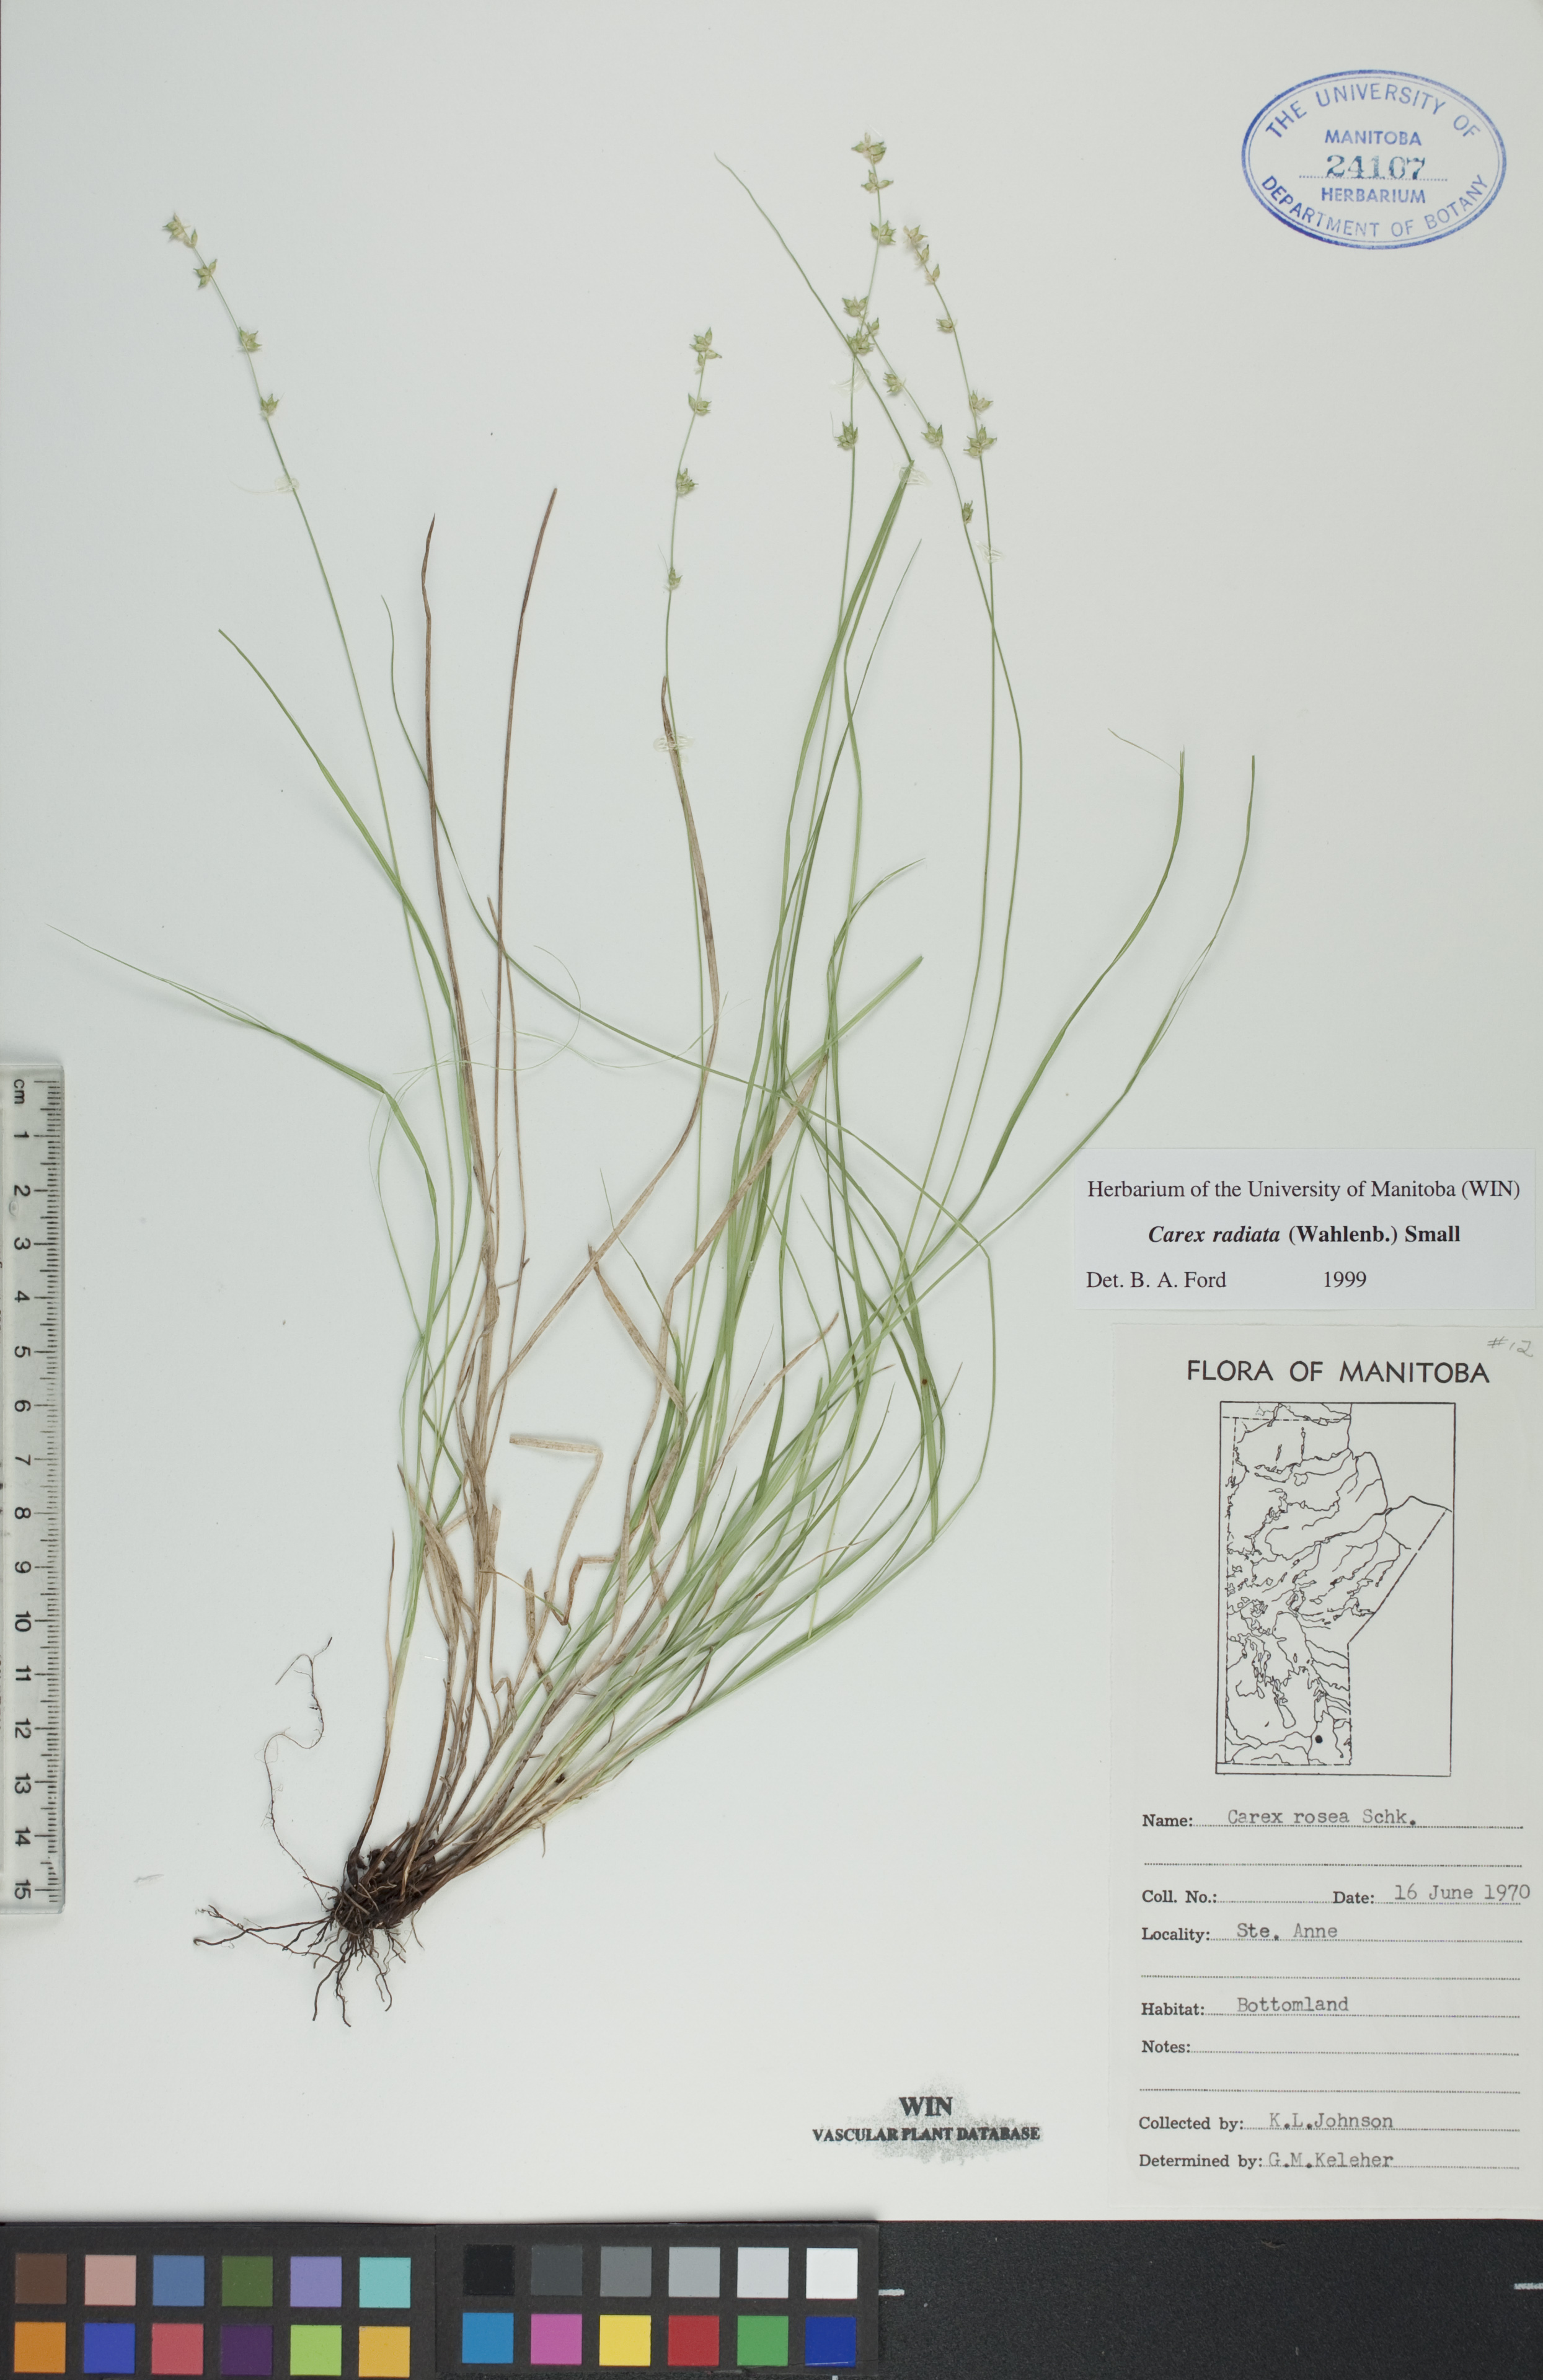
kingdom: Plantae
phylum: Tracheophyta
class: Liliopsida
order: Poales
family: Cyperaceae
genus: Carex
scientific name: Carex radiata
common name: Eastern star sedge
